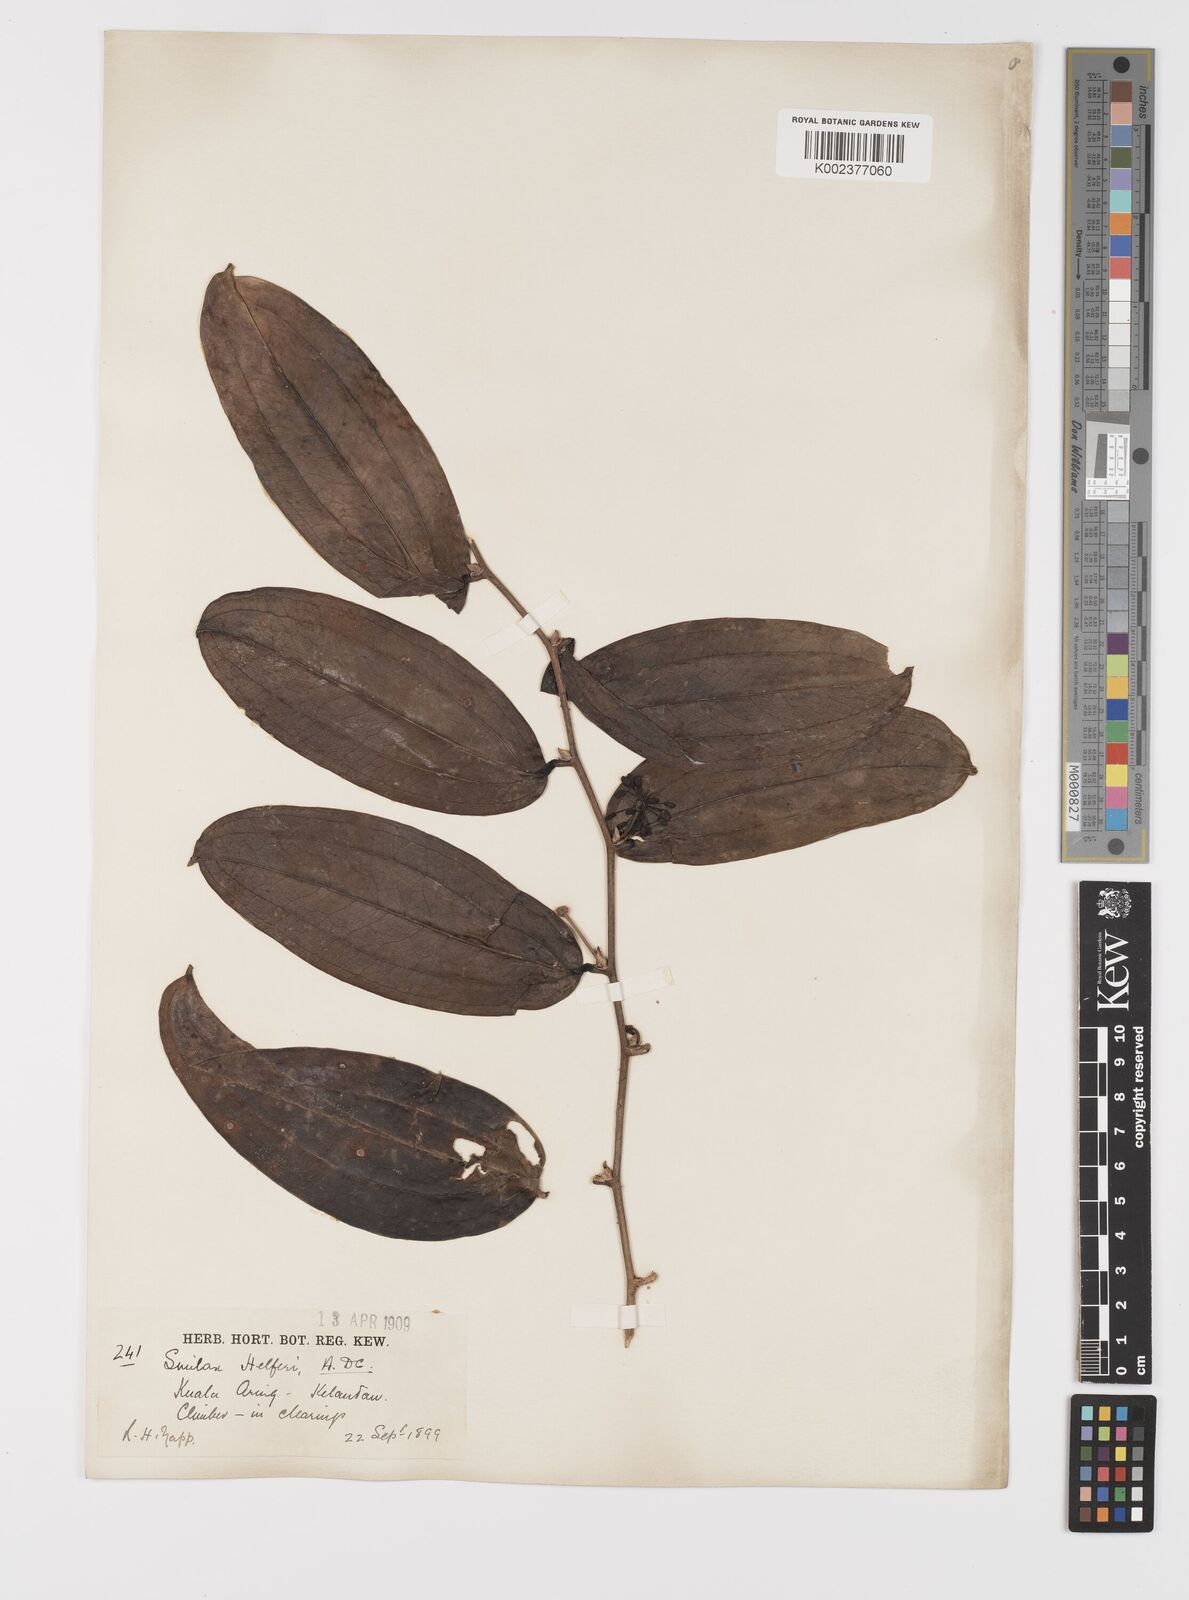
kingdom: Plantae
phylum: Tracheophyta
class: Liliopsida
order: Liliales
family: Smilacaceae
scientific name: Smilacaceae
